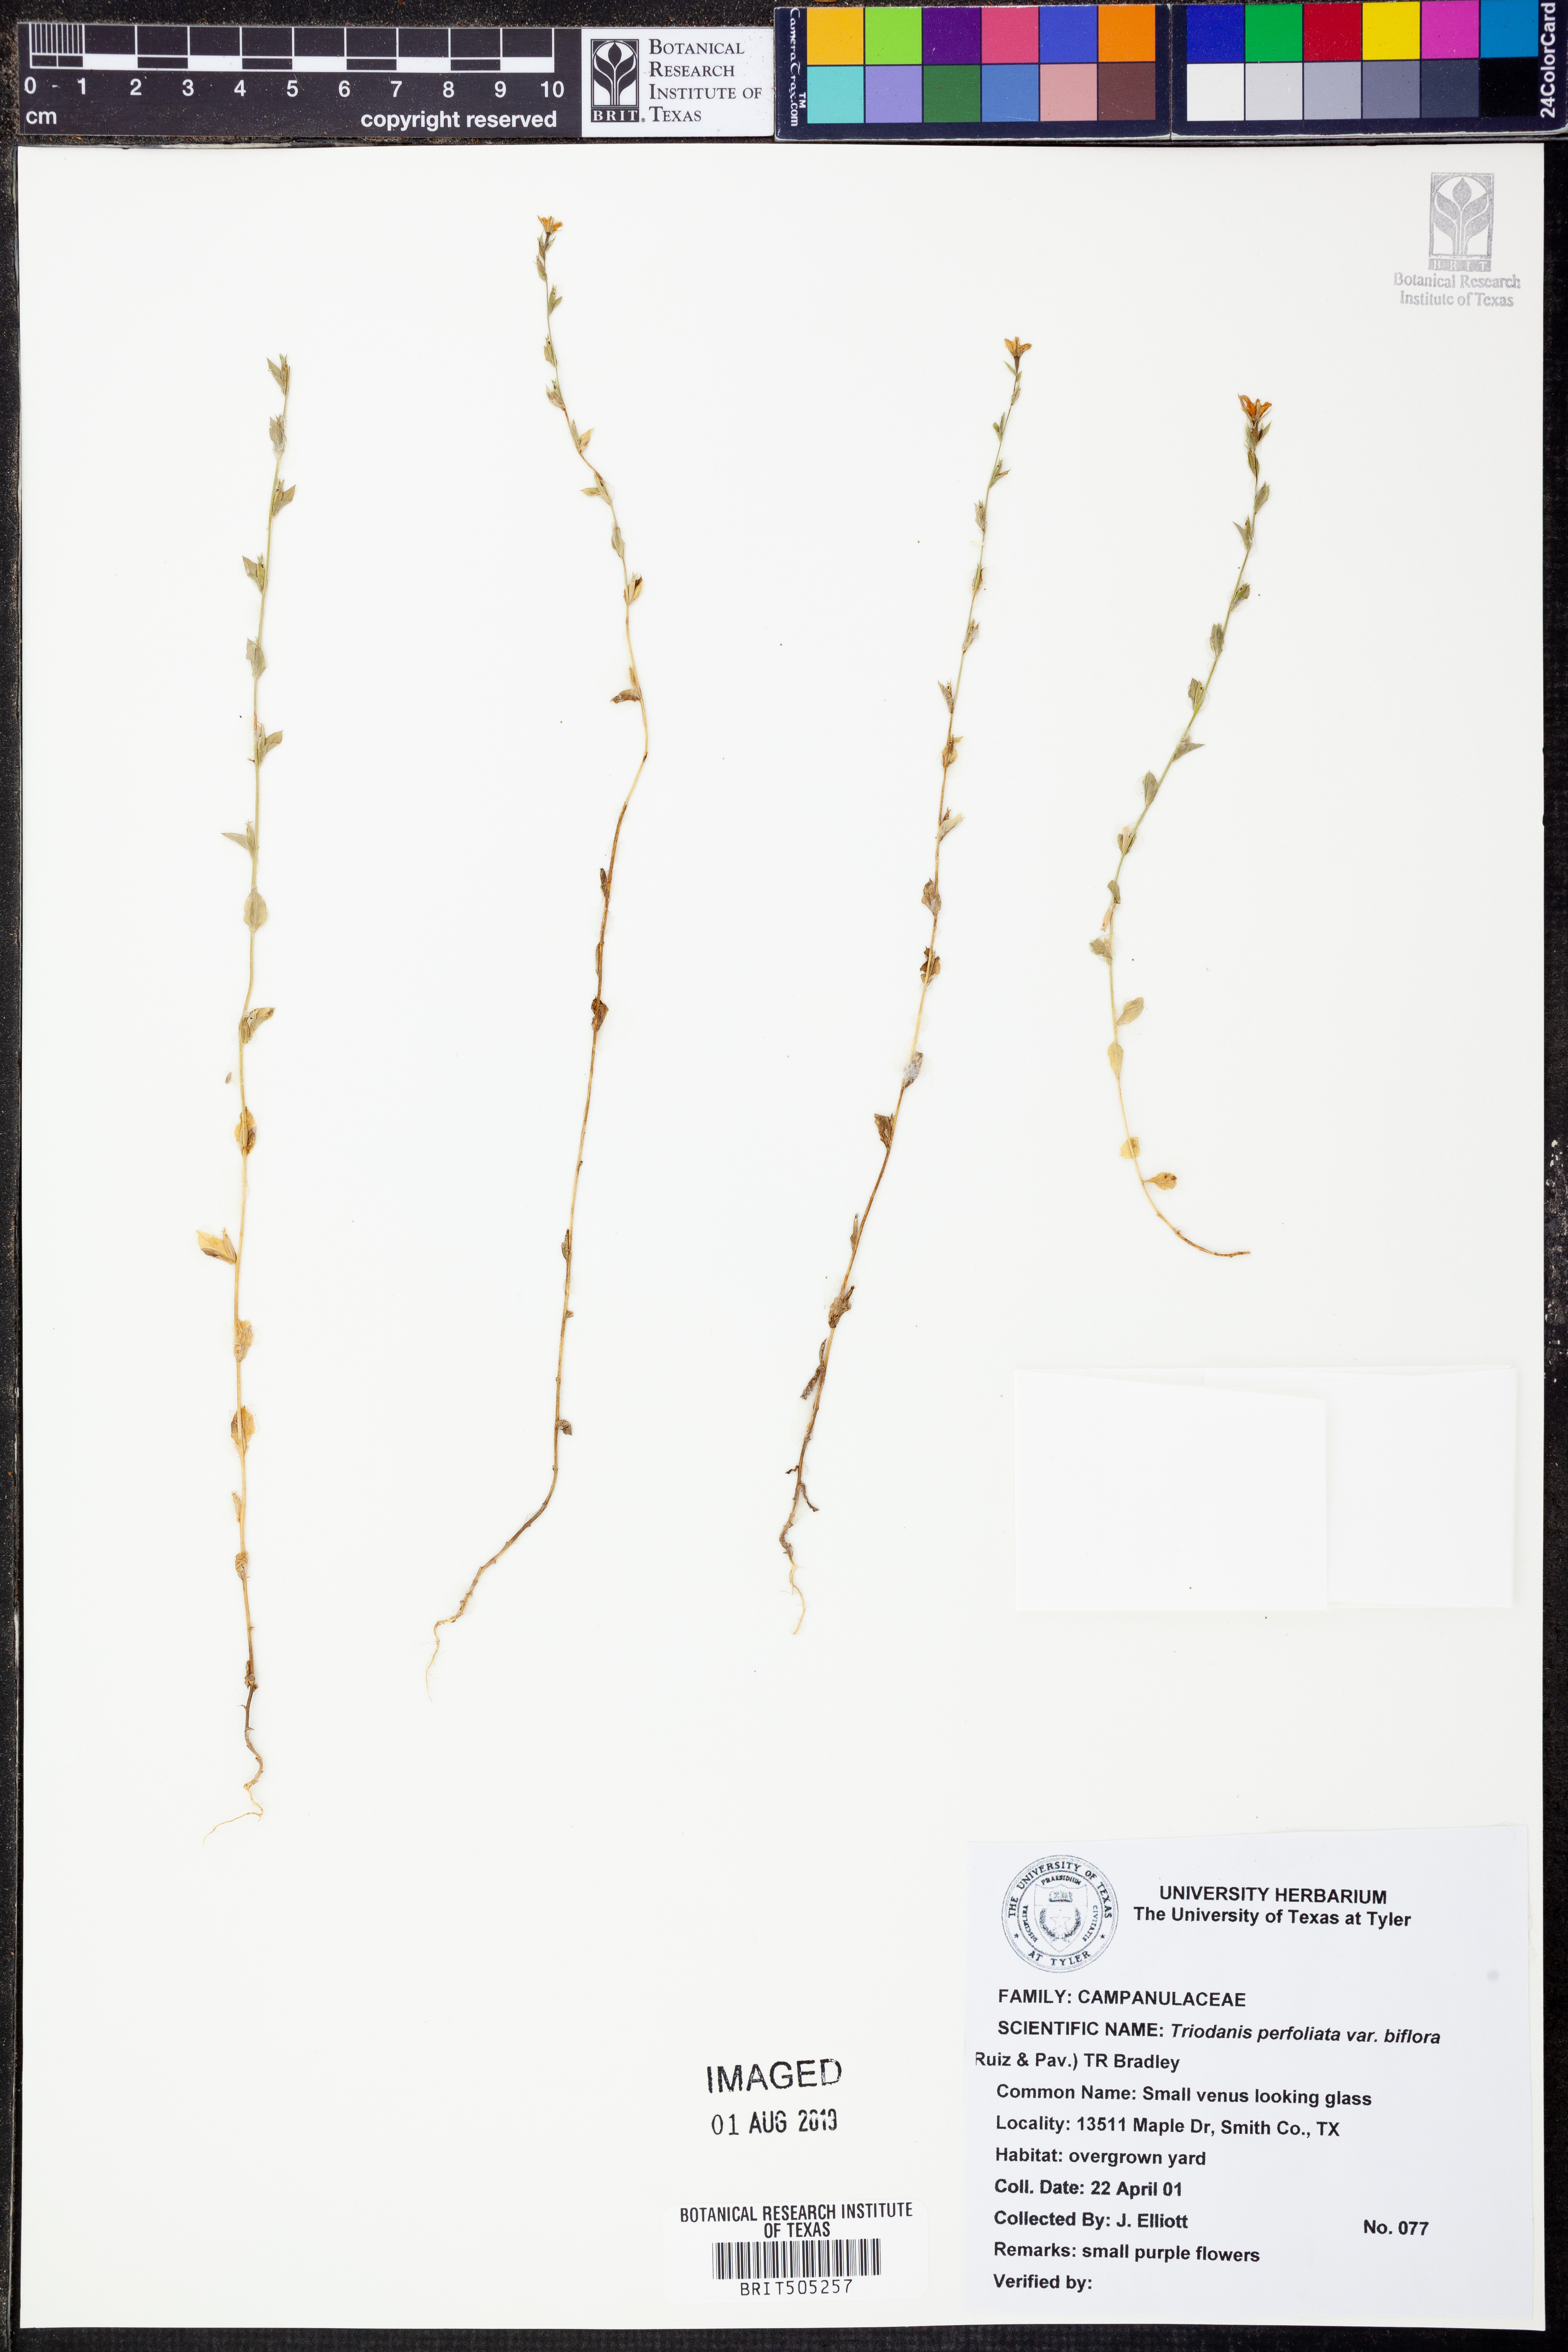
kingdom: Plantae
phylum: Tracheophyta
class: Magnoliopsida
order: Asterales
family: Campanulaceae
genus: Triodanis
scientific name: Triodanis perfoliata
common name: Clasping venus' looking-glass
